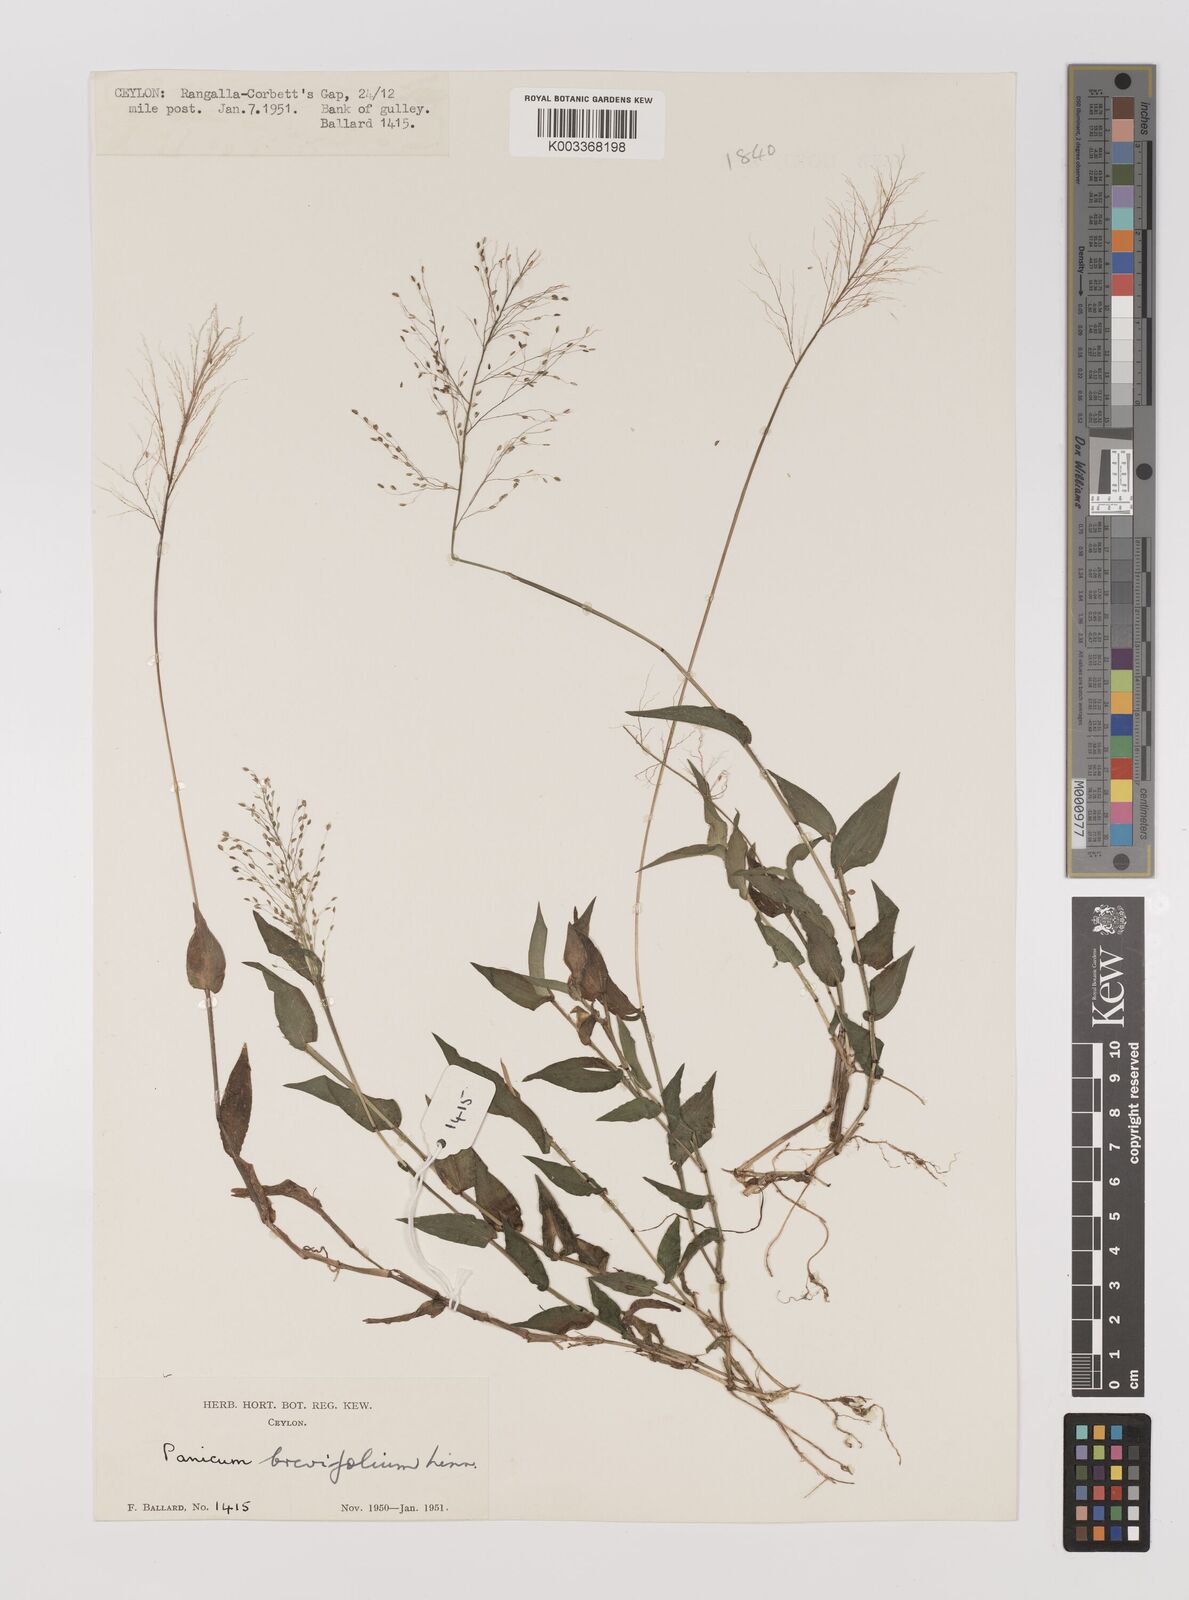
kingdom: Plantae
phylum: Tracheophyta
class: Liliopsida
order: Poales
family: Poaceae
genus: Panicum
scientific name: Panicum brevifolium
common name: Shortleaf panic grass
